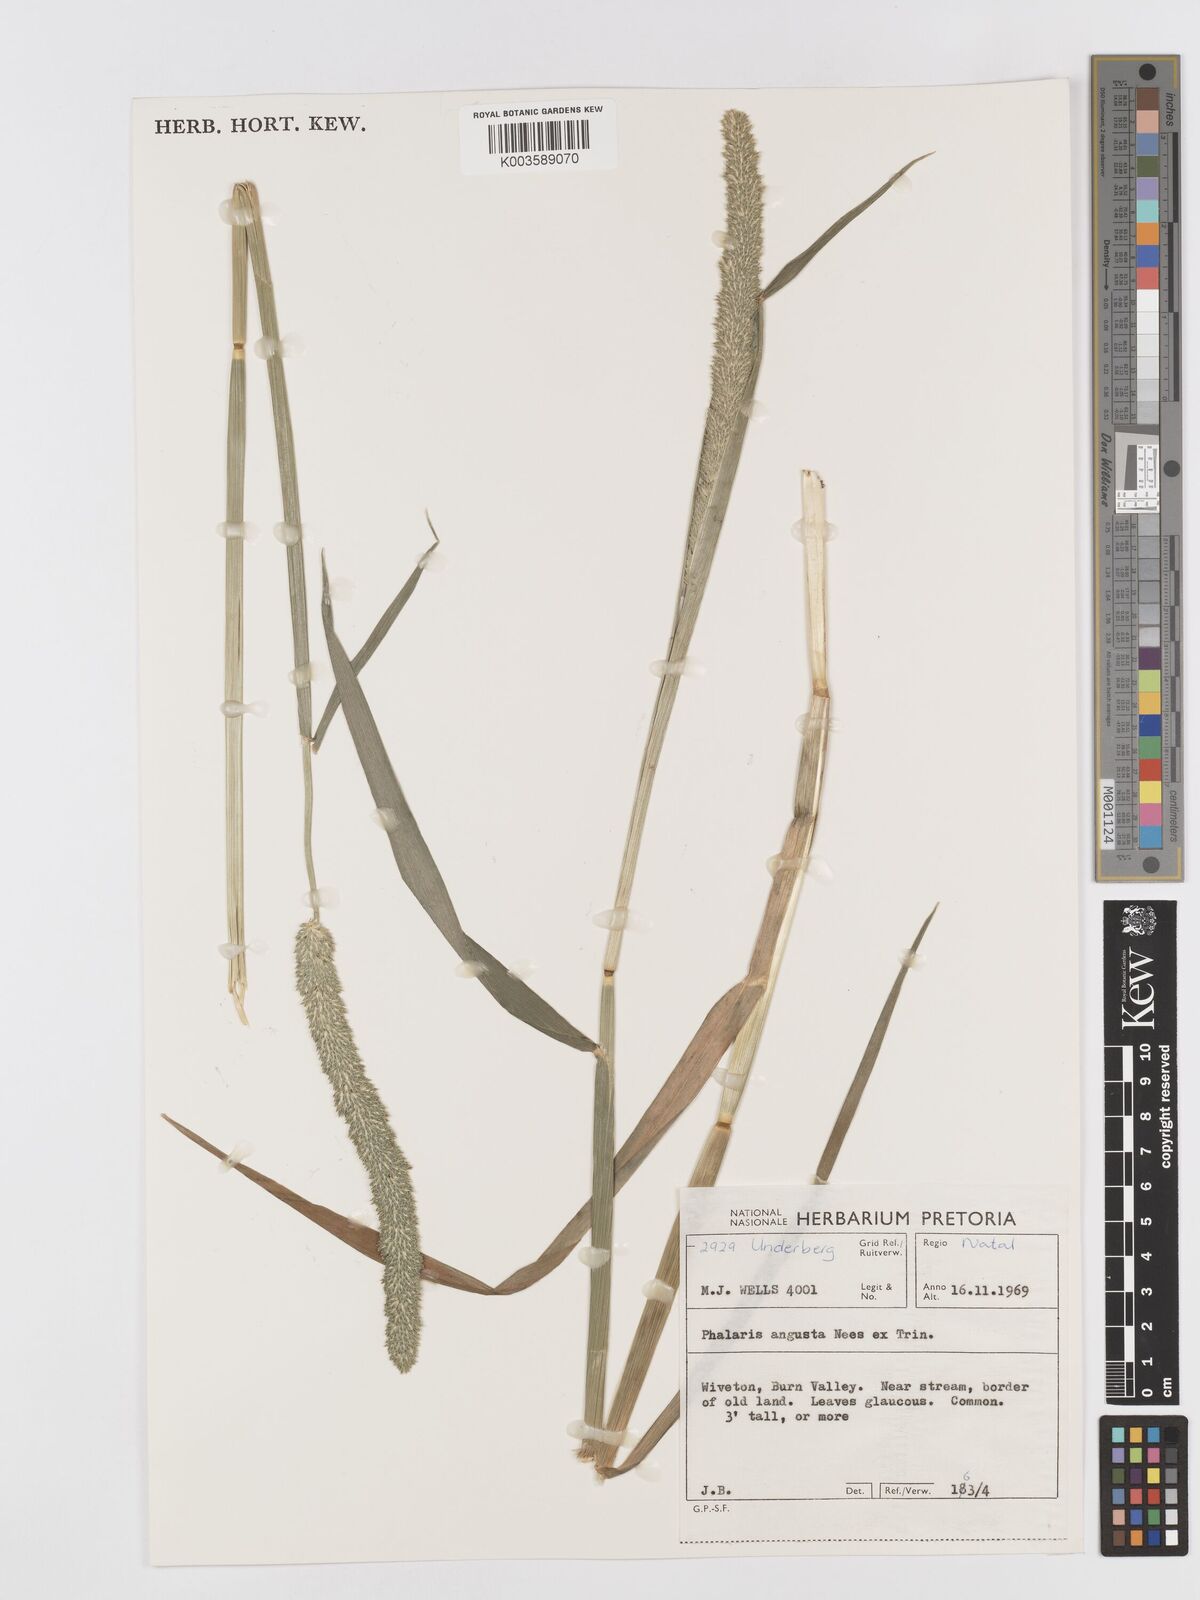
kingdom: Plantae
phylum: Tracheophyta
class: Liliopsida
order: Poales
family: Poaceae
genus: Phalaris
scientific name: Phalaris
